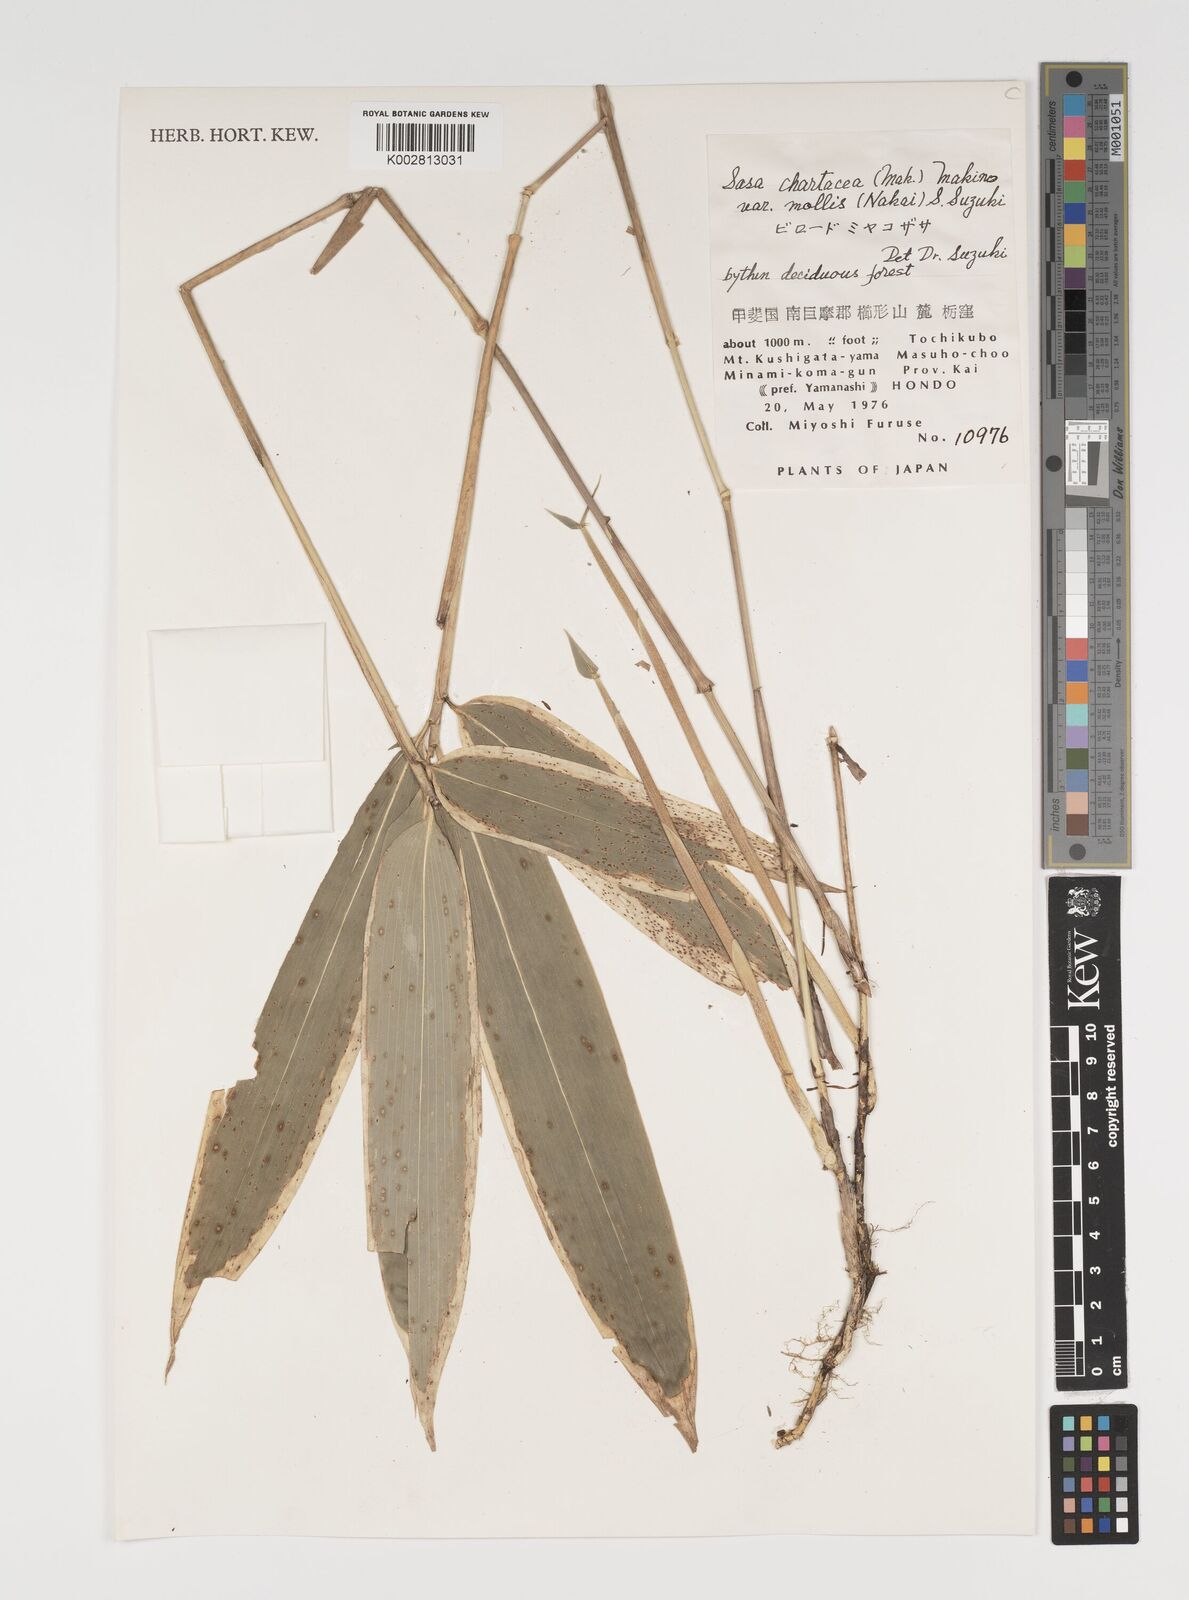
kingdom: Plantae
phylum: Tracheophyta
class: Liliopsida
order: Poales
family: Poaceae
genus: Sasa
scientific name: Sasa chartacea
